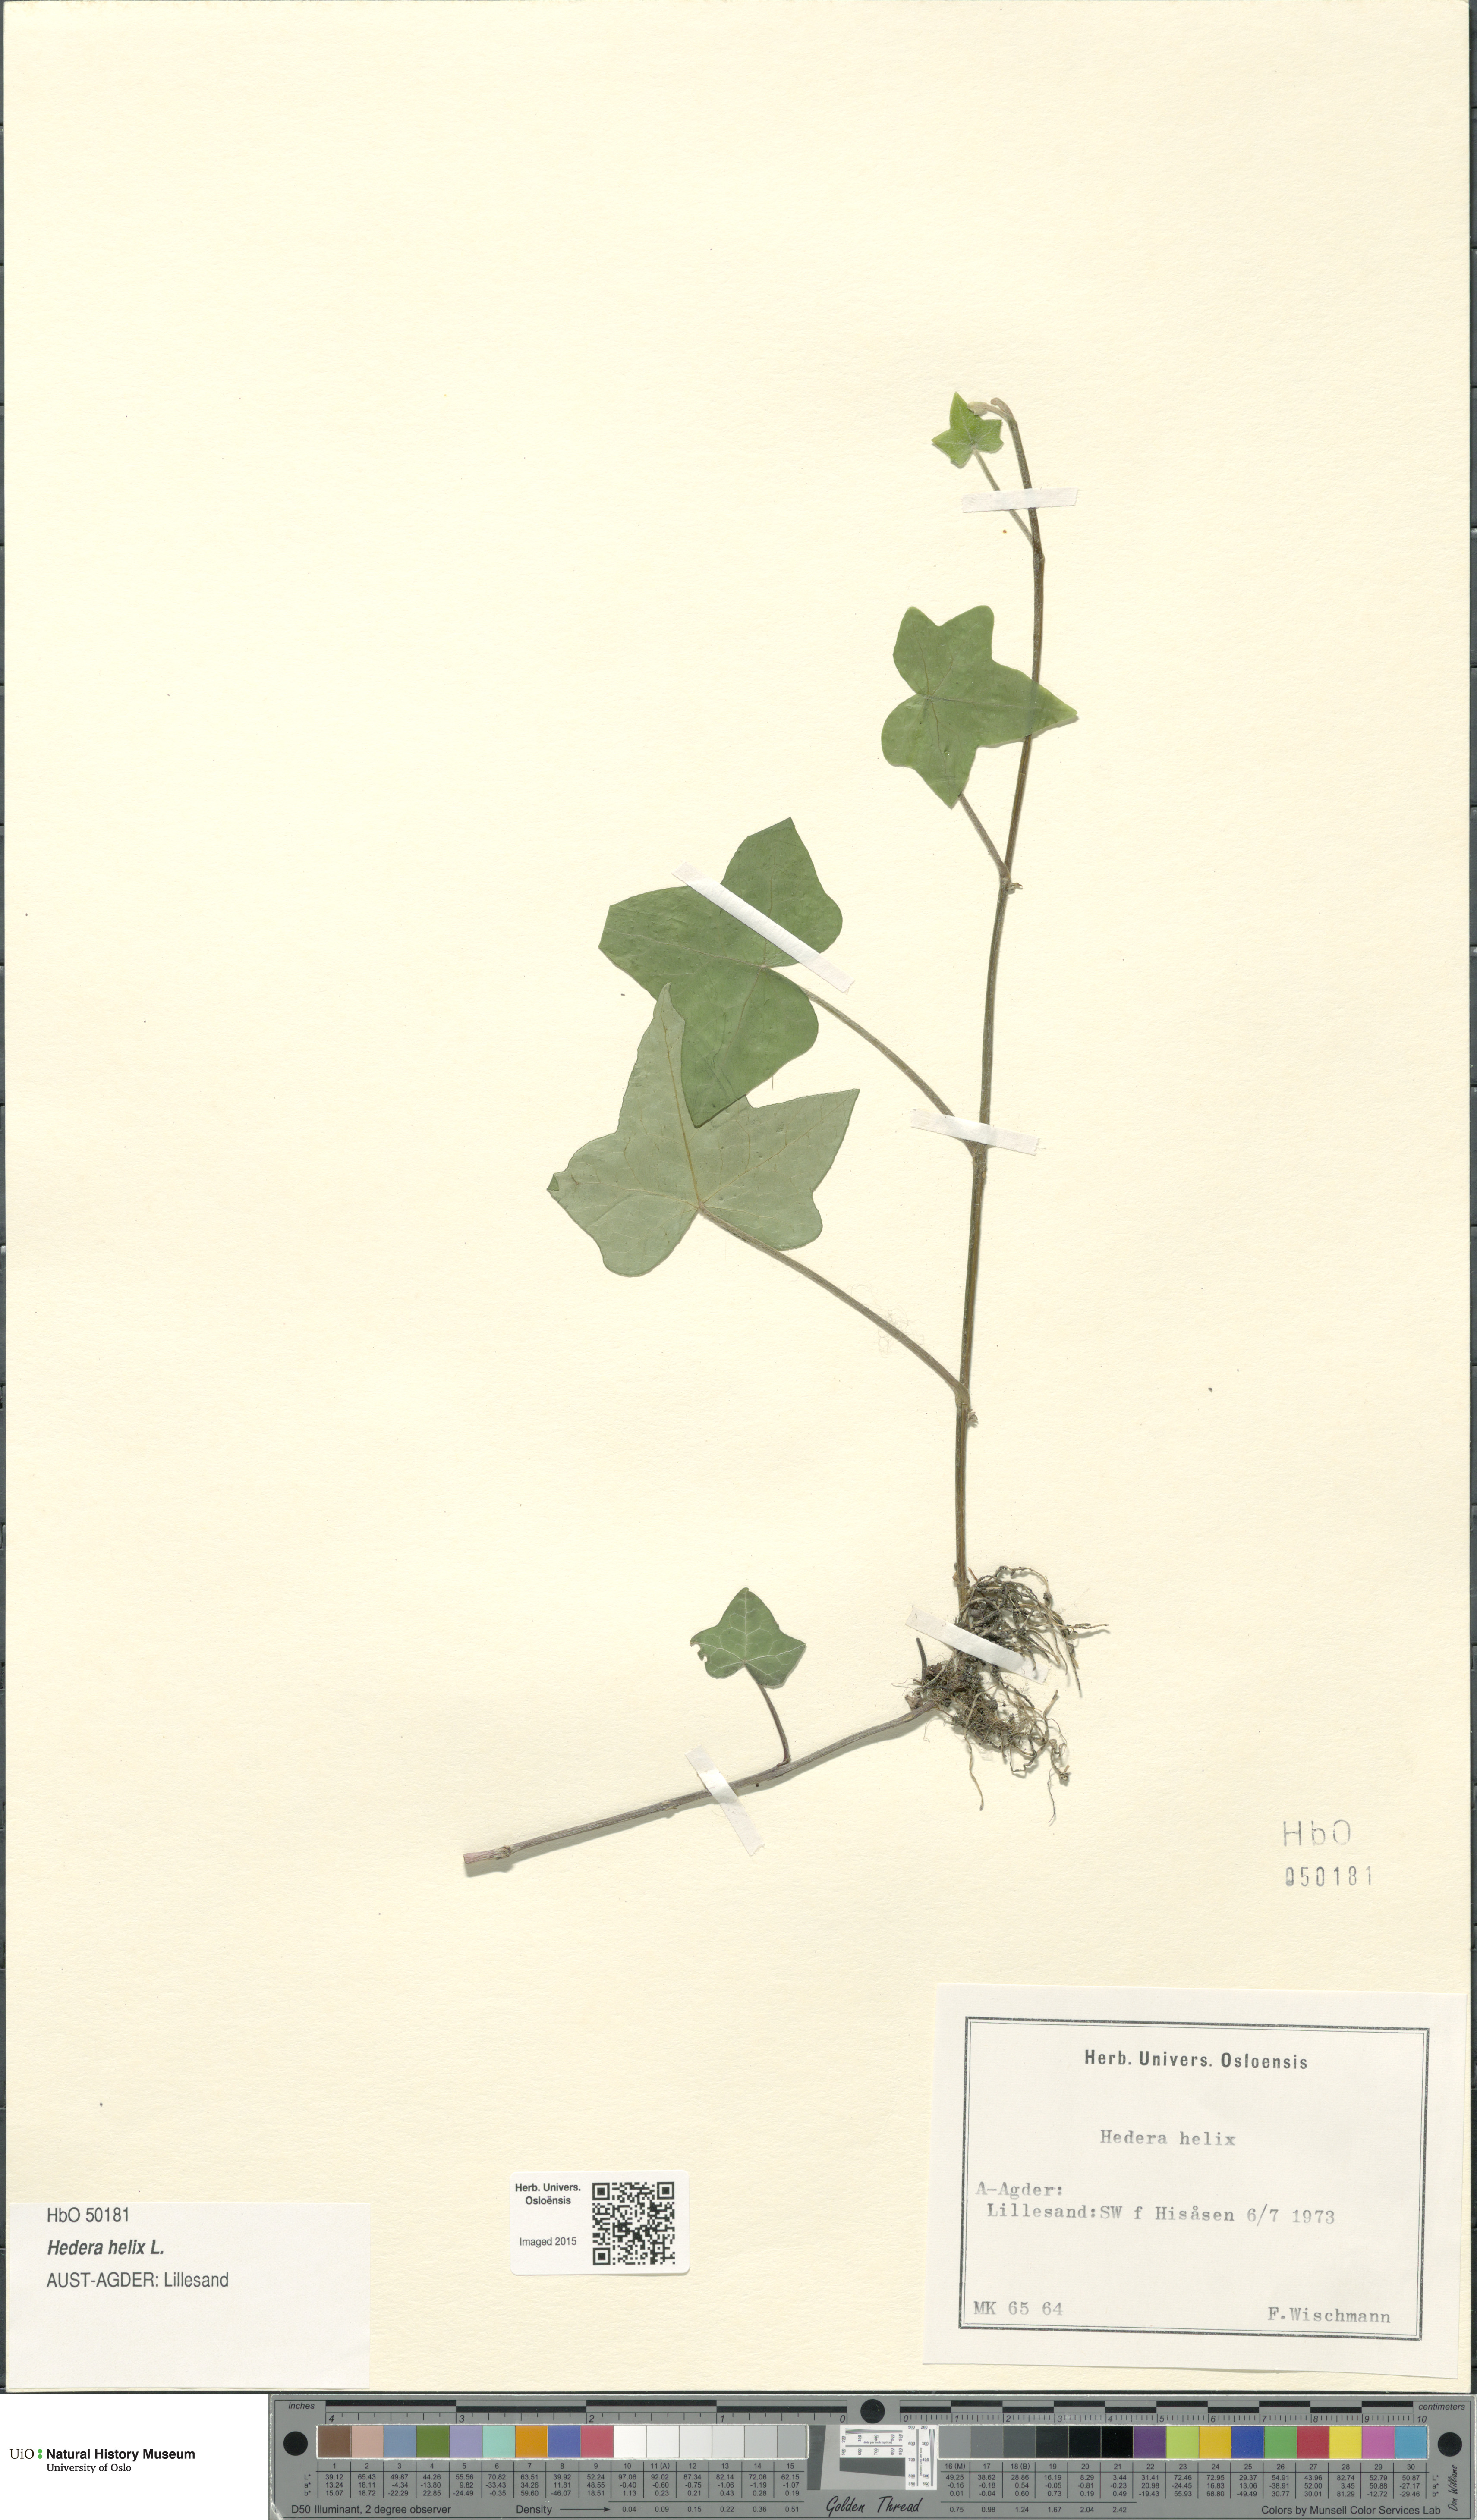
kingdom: Plantae
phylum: Tracheophyta
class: Magnoliopsida
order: Apiales
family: Araliaceae
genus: Hedera
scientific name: Hedera helix
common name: Ivy
